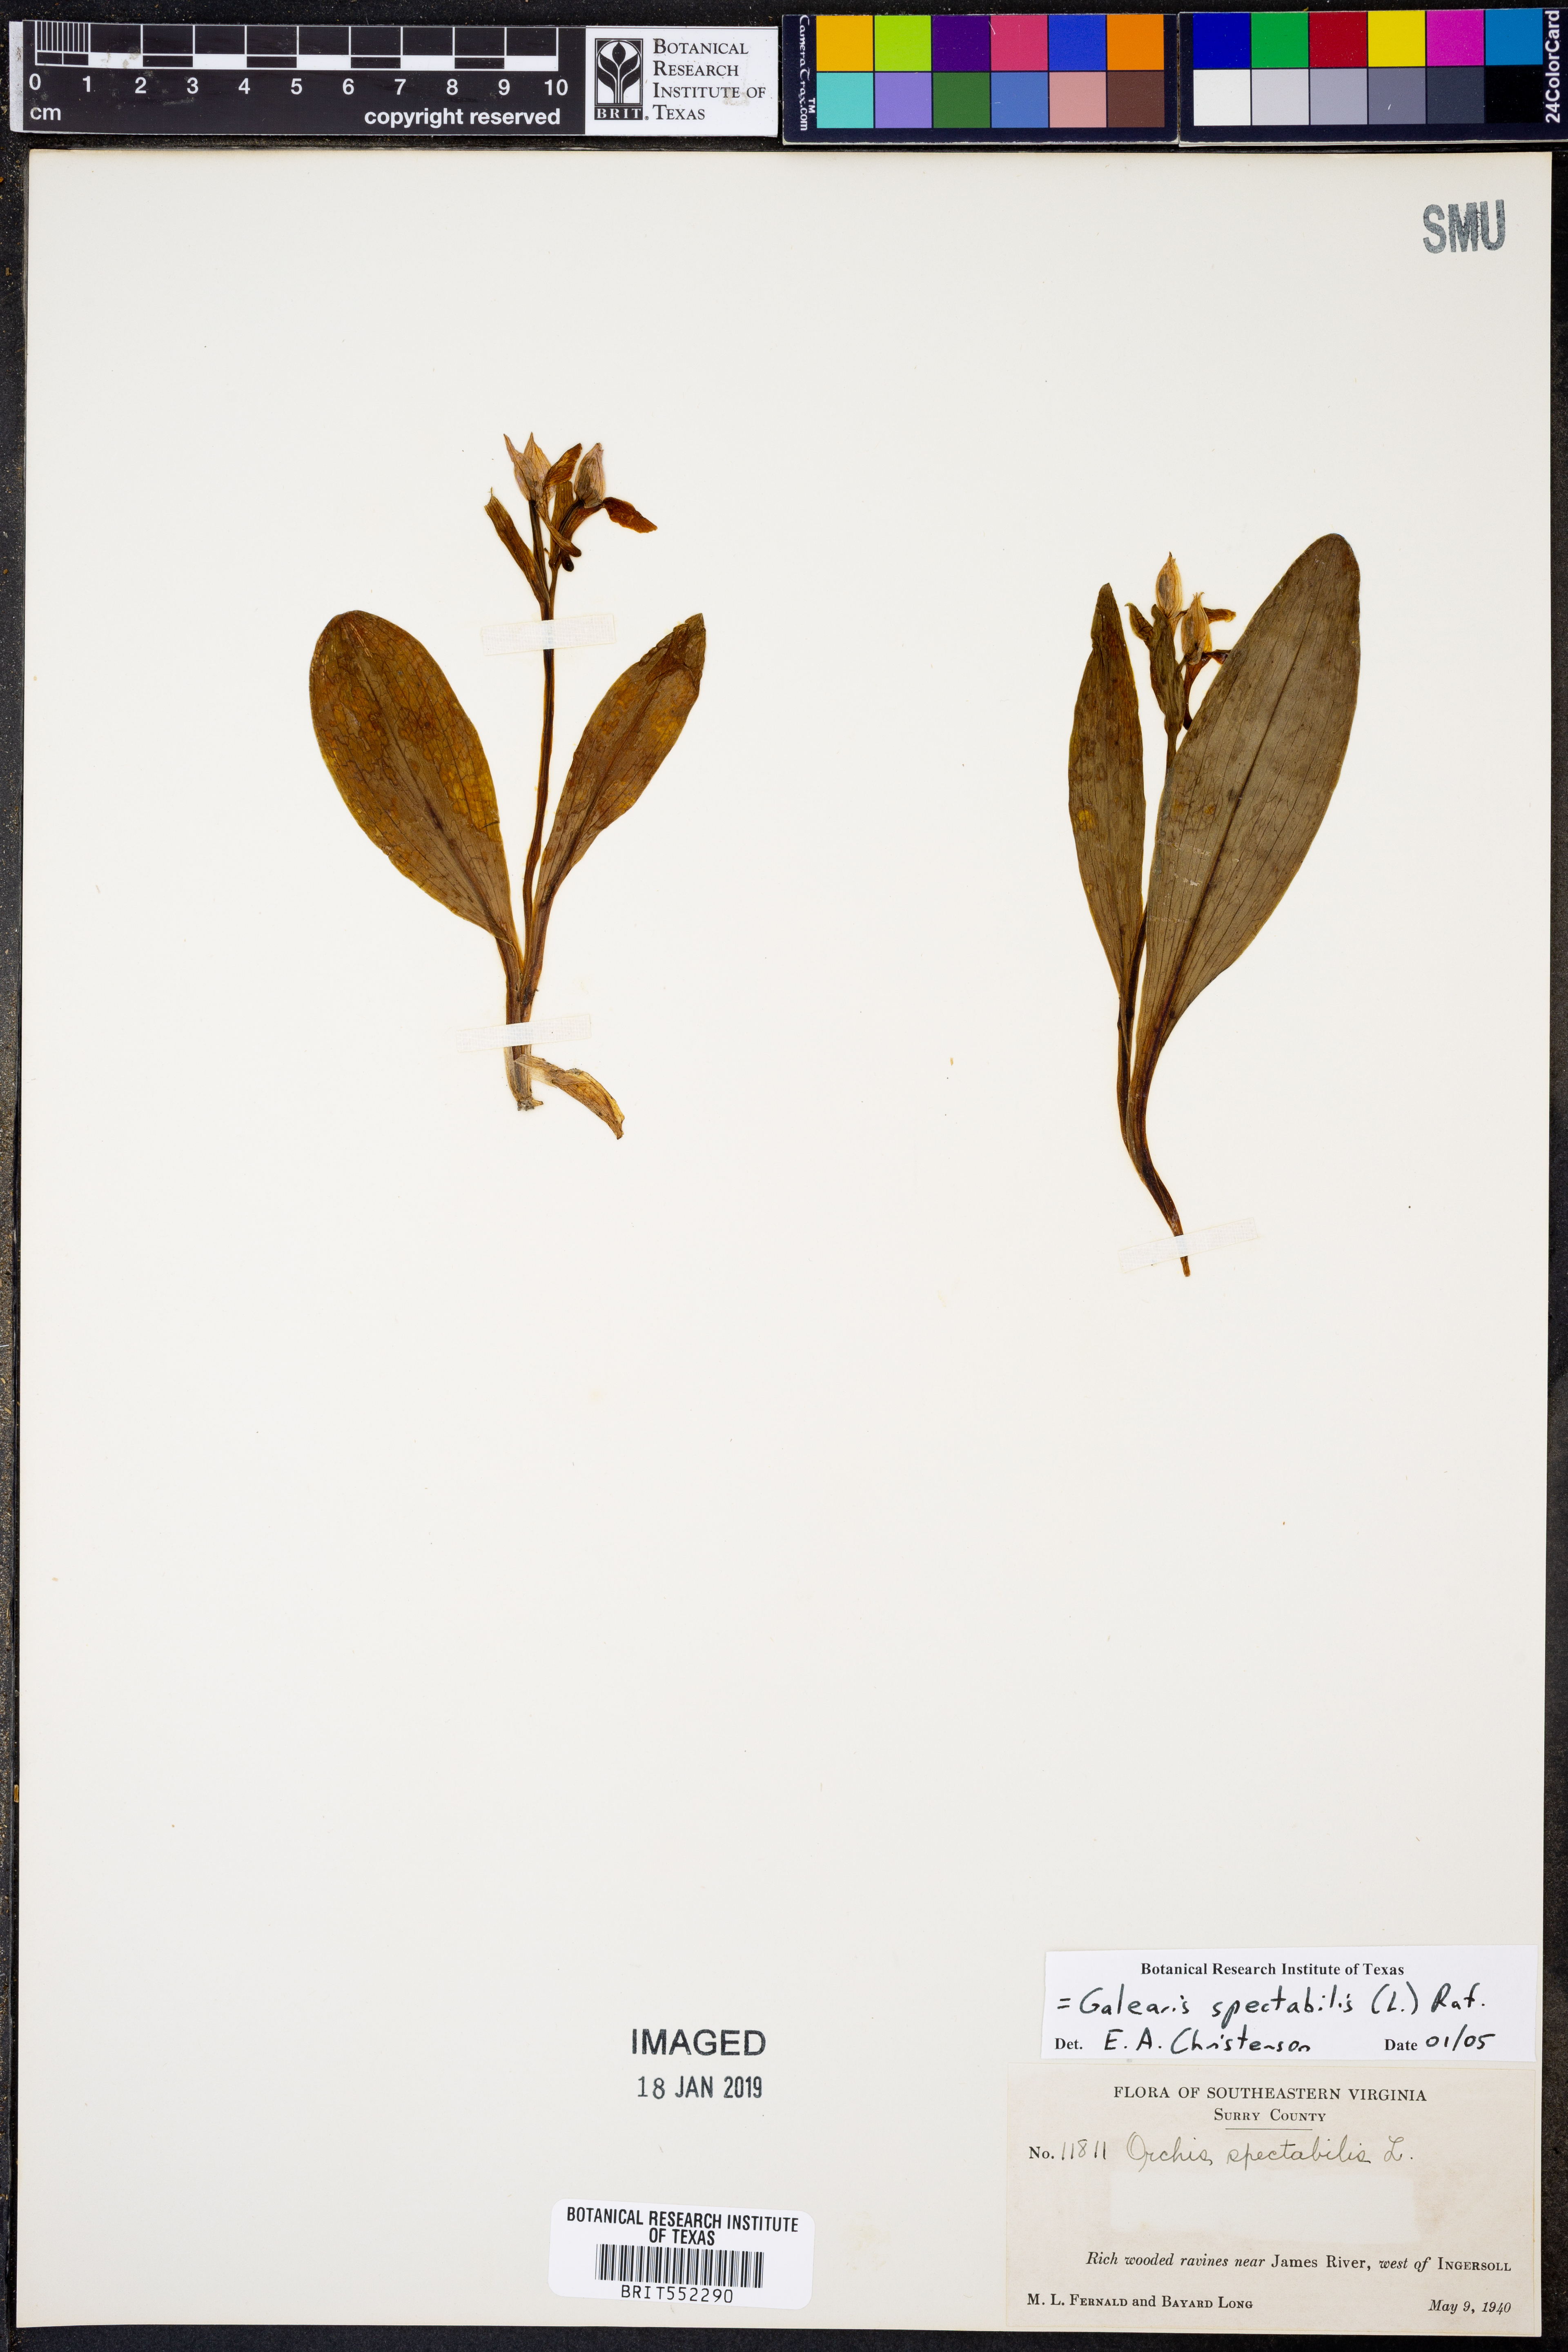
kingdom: Plantae
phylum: Tracheophyta
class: Liliopsida
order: Asparagales
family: Orchidaceae
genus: Galearis
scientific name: Galearis spectabilis
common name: Purple-hooded orchis
